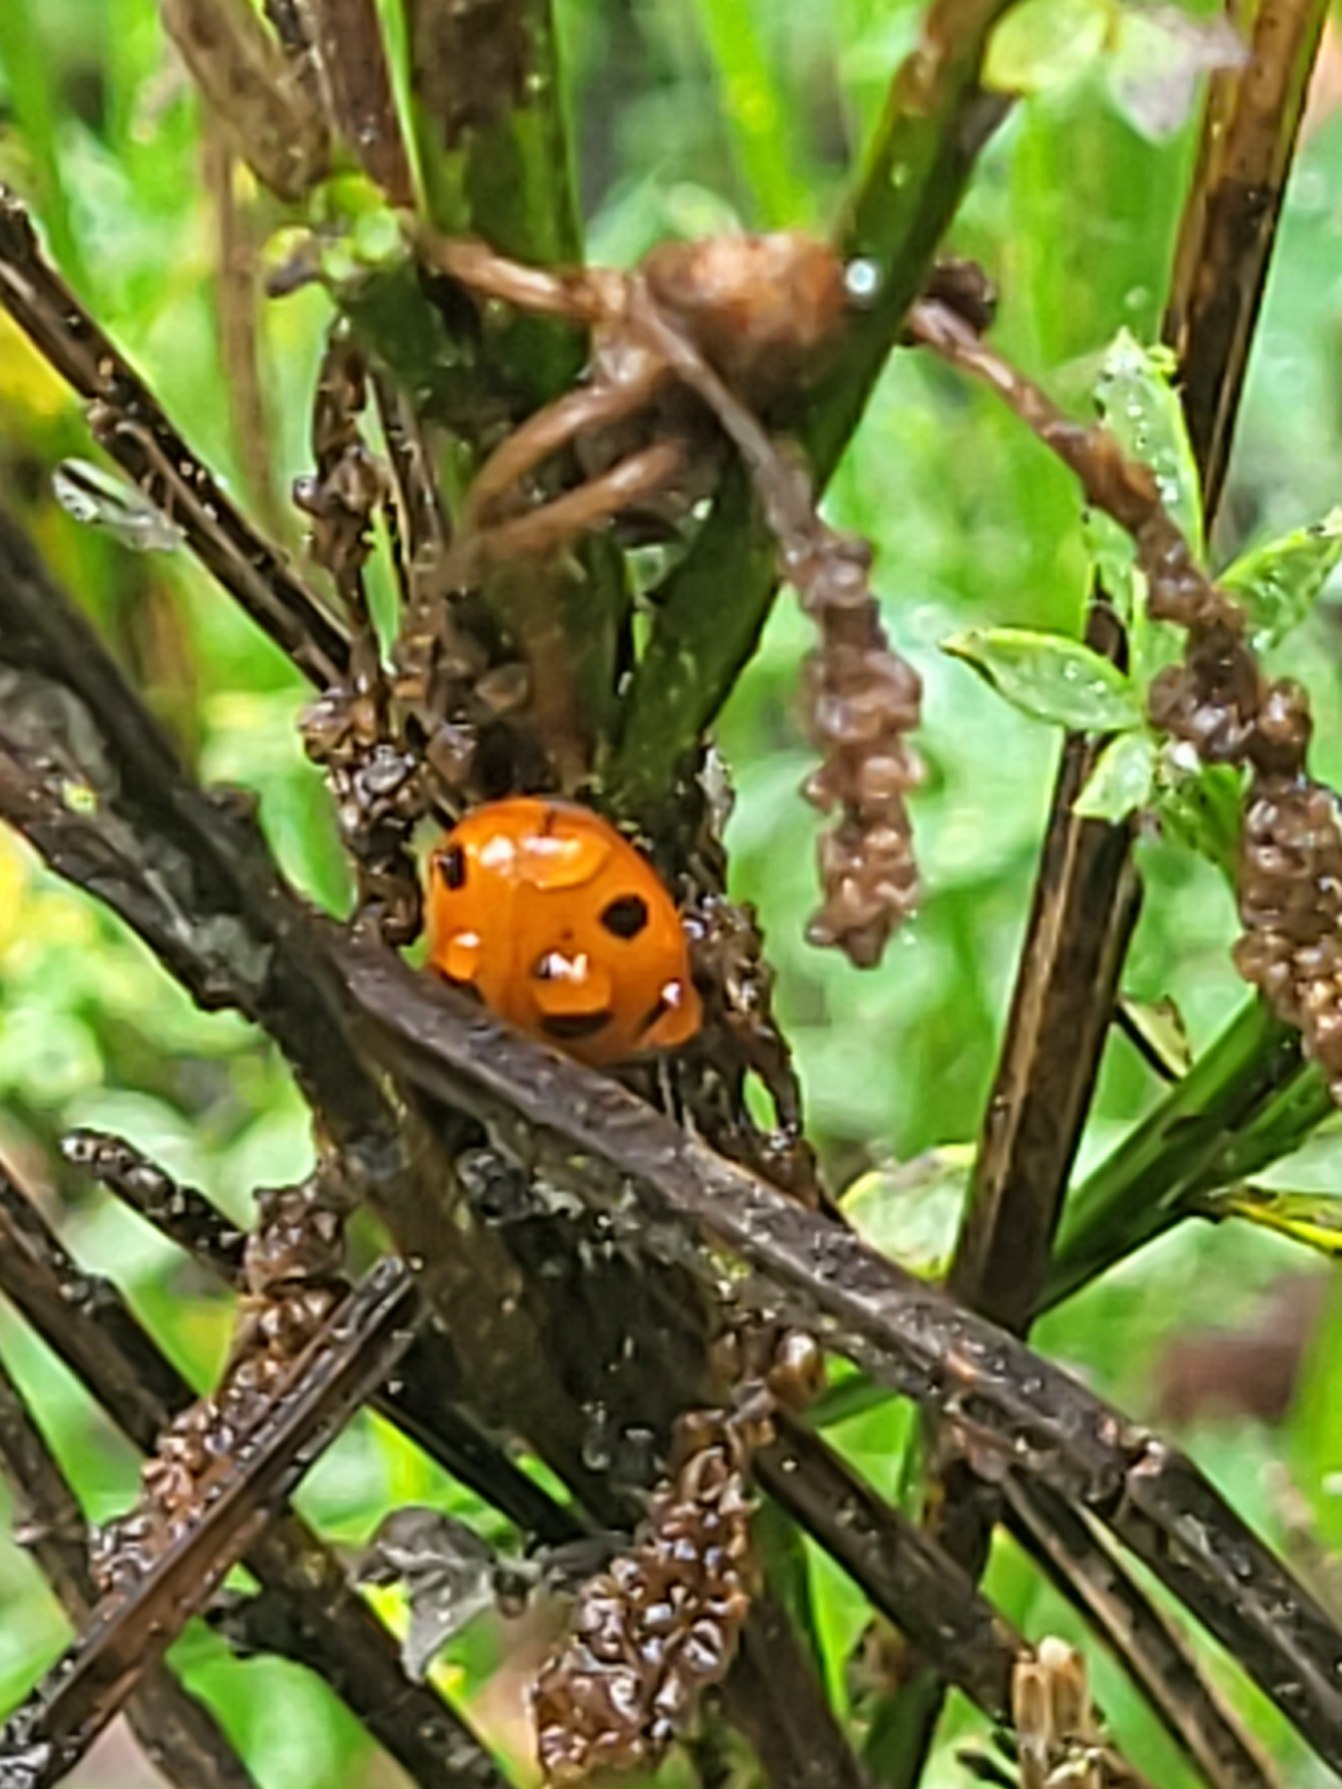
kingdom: Animalia
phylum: Arthropoda
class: Insecta
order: Coleoptera
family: Coccinellidae
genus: Coccinella
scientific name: Coccinella septempunctata
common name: Syvplettet mariehøne
